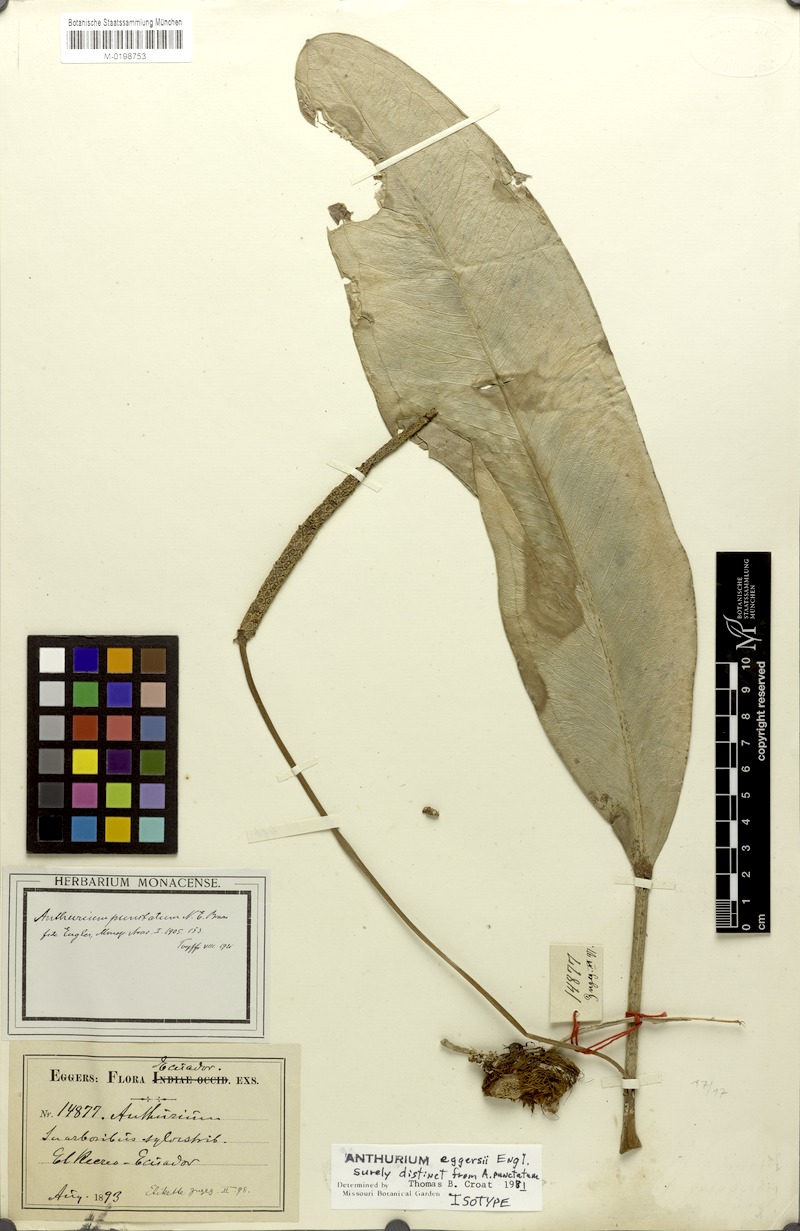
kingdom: Plantae
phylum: Tracheophyta
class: Liliopsida
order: Alismatales
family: Araceae
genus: Anthurium
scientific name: Anthurium eggersii
